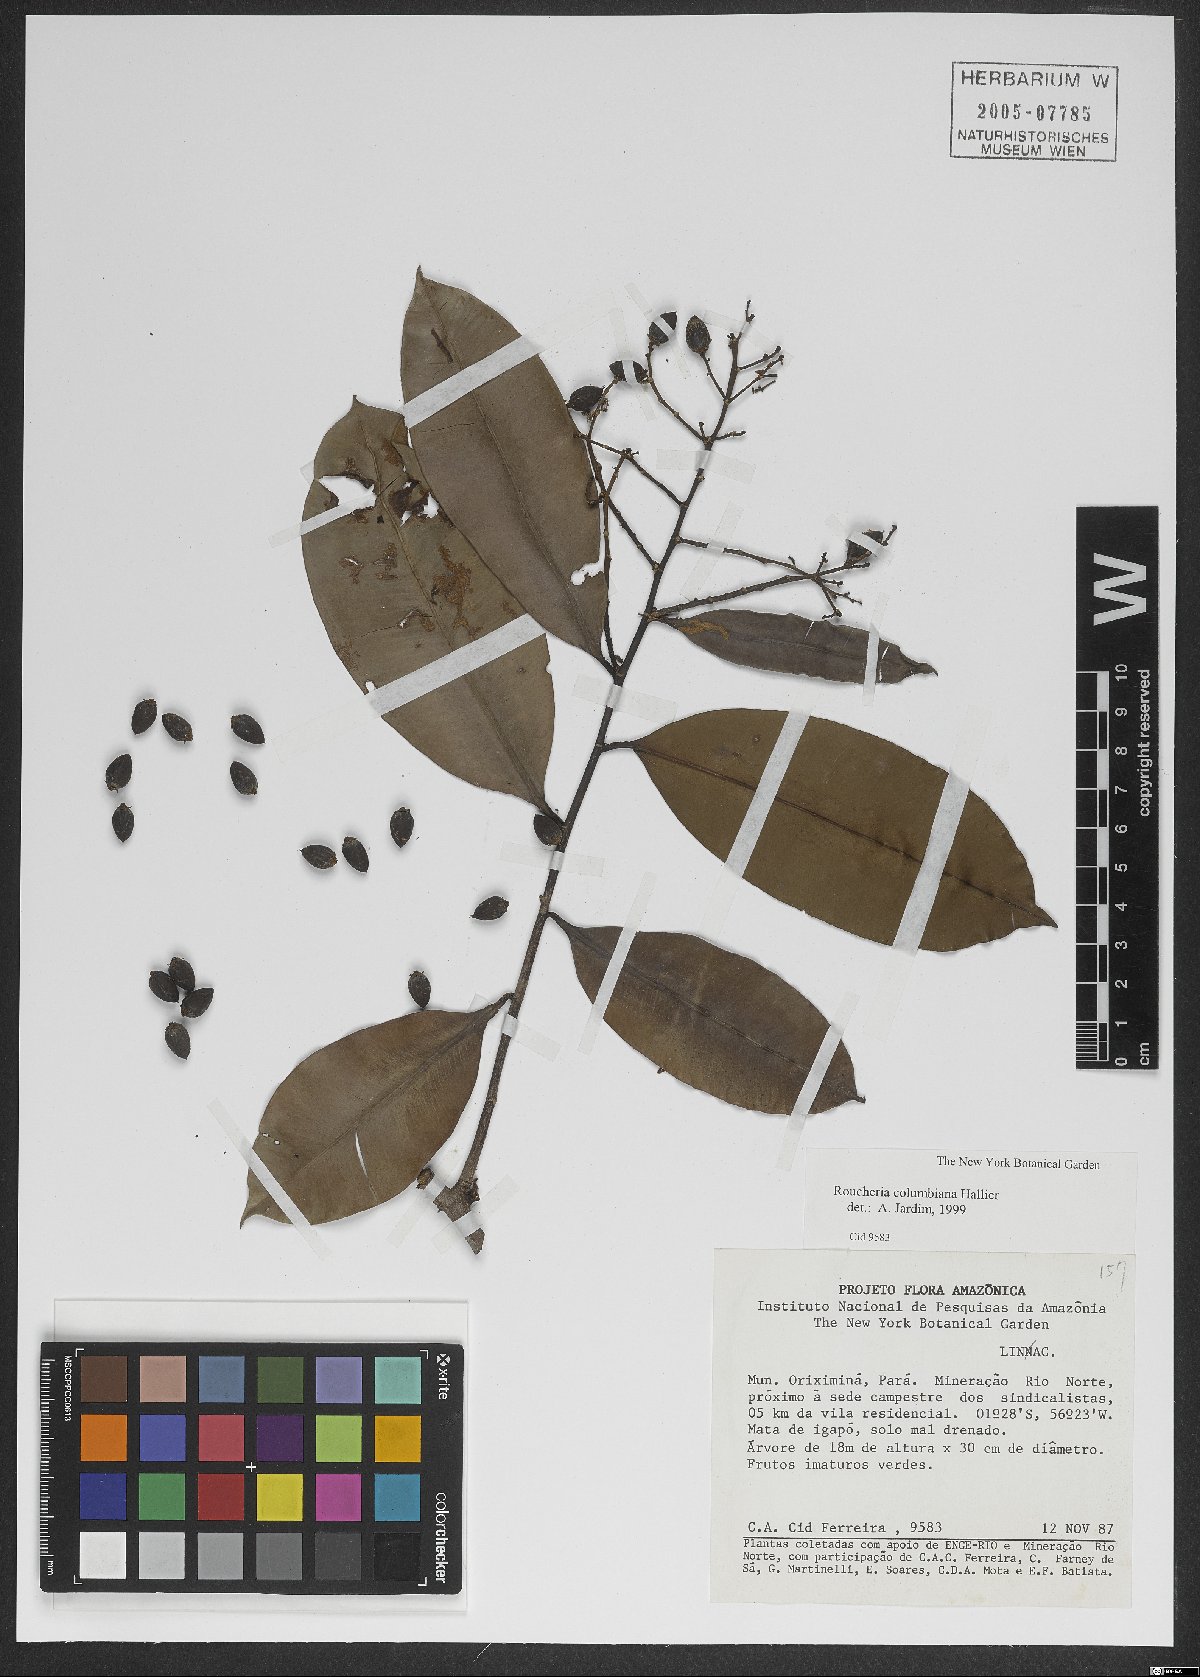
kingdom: Plantae
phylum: Tracheophyta
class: Magnoliopsida
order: Malpighiales
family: Linaceae
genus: Roucheria
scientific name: Roucheria columbiana
